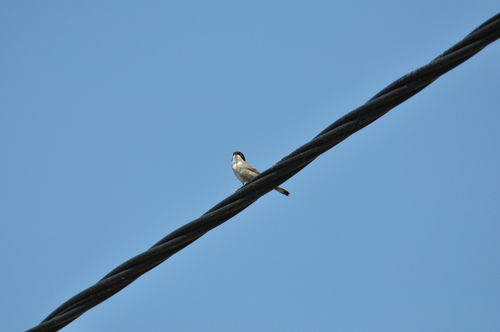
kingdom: Animalia
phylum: Chordata
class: Aves
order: Passeriformes
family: Sylviidae
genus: Sylvia
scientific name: Sylvia melanocephala
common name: Sardinian warbler
